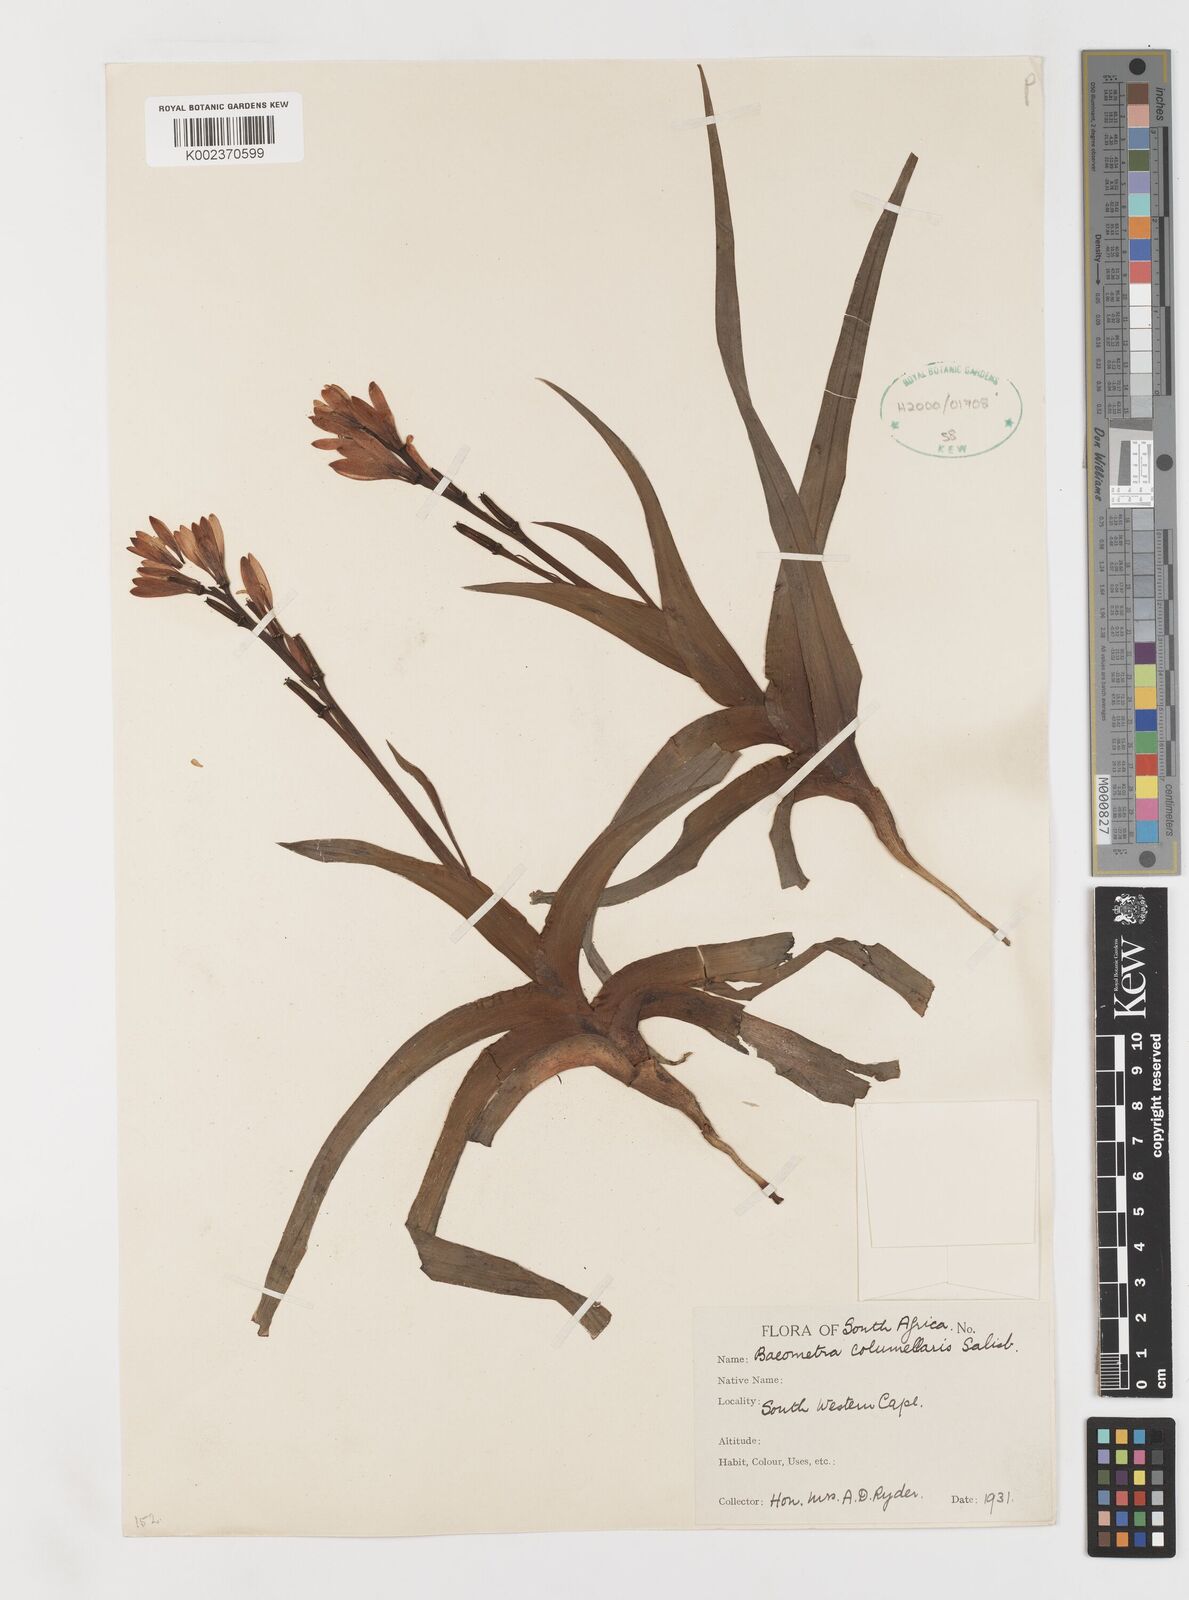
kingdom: Plantae
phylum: Tracheophyta
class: Liliopsida
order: Liliales
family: Colchicaceae
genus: Baeometra
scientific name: Baeometra uniflora
